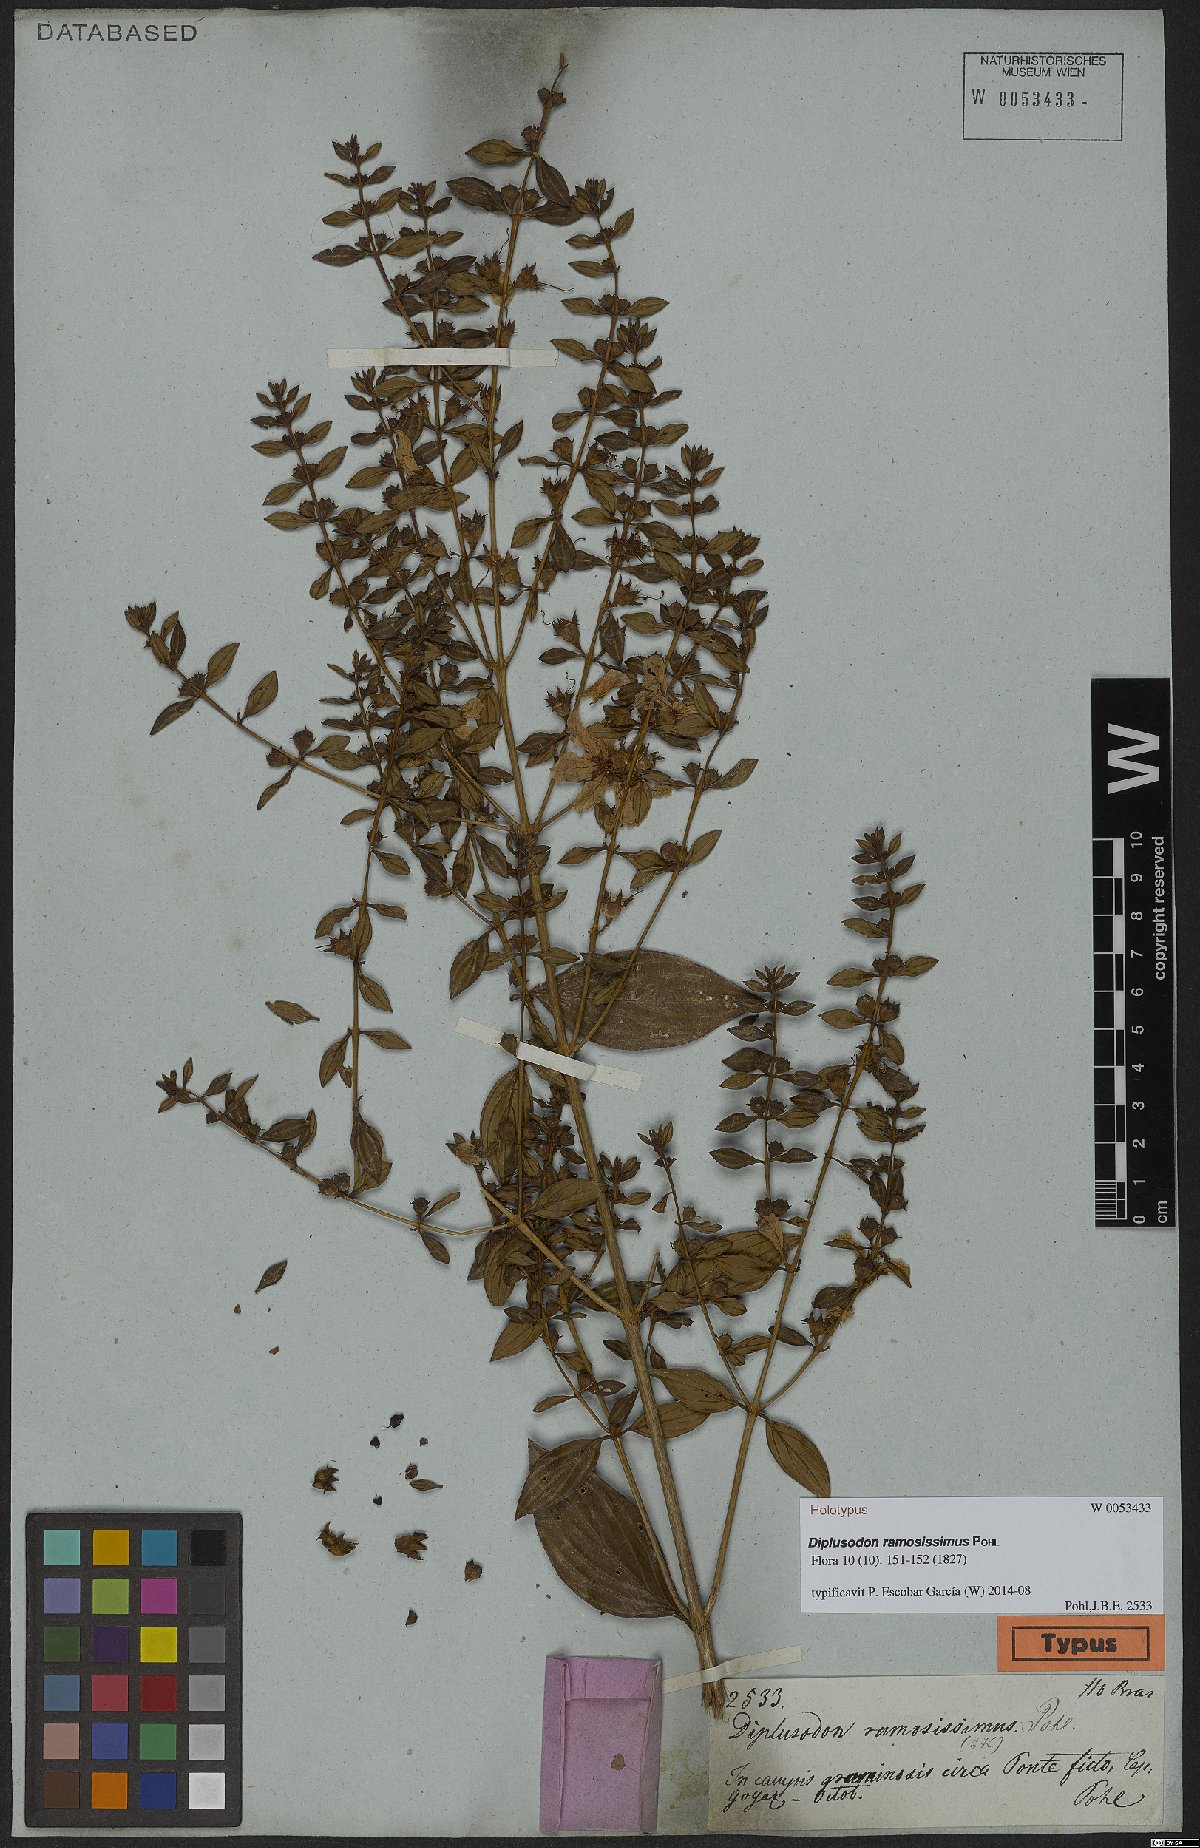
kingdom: Plantae
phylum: Tracheophyta
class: Magnoliopsida
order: Myrtales
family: Lythraceae
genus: Diplusodon
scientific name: Diplusodon ramosissimus
